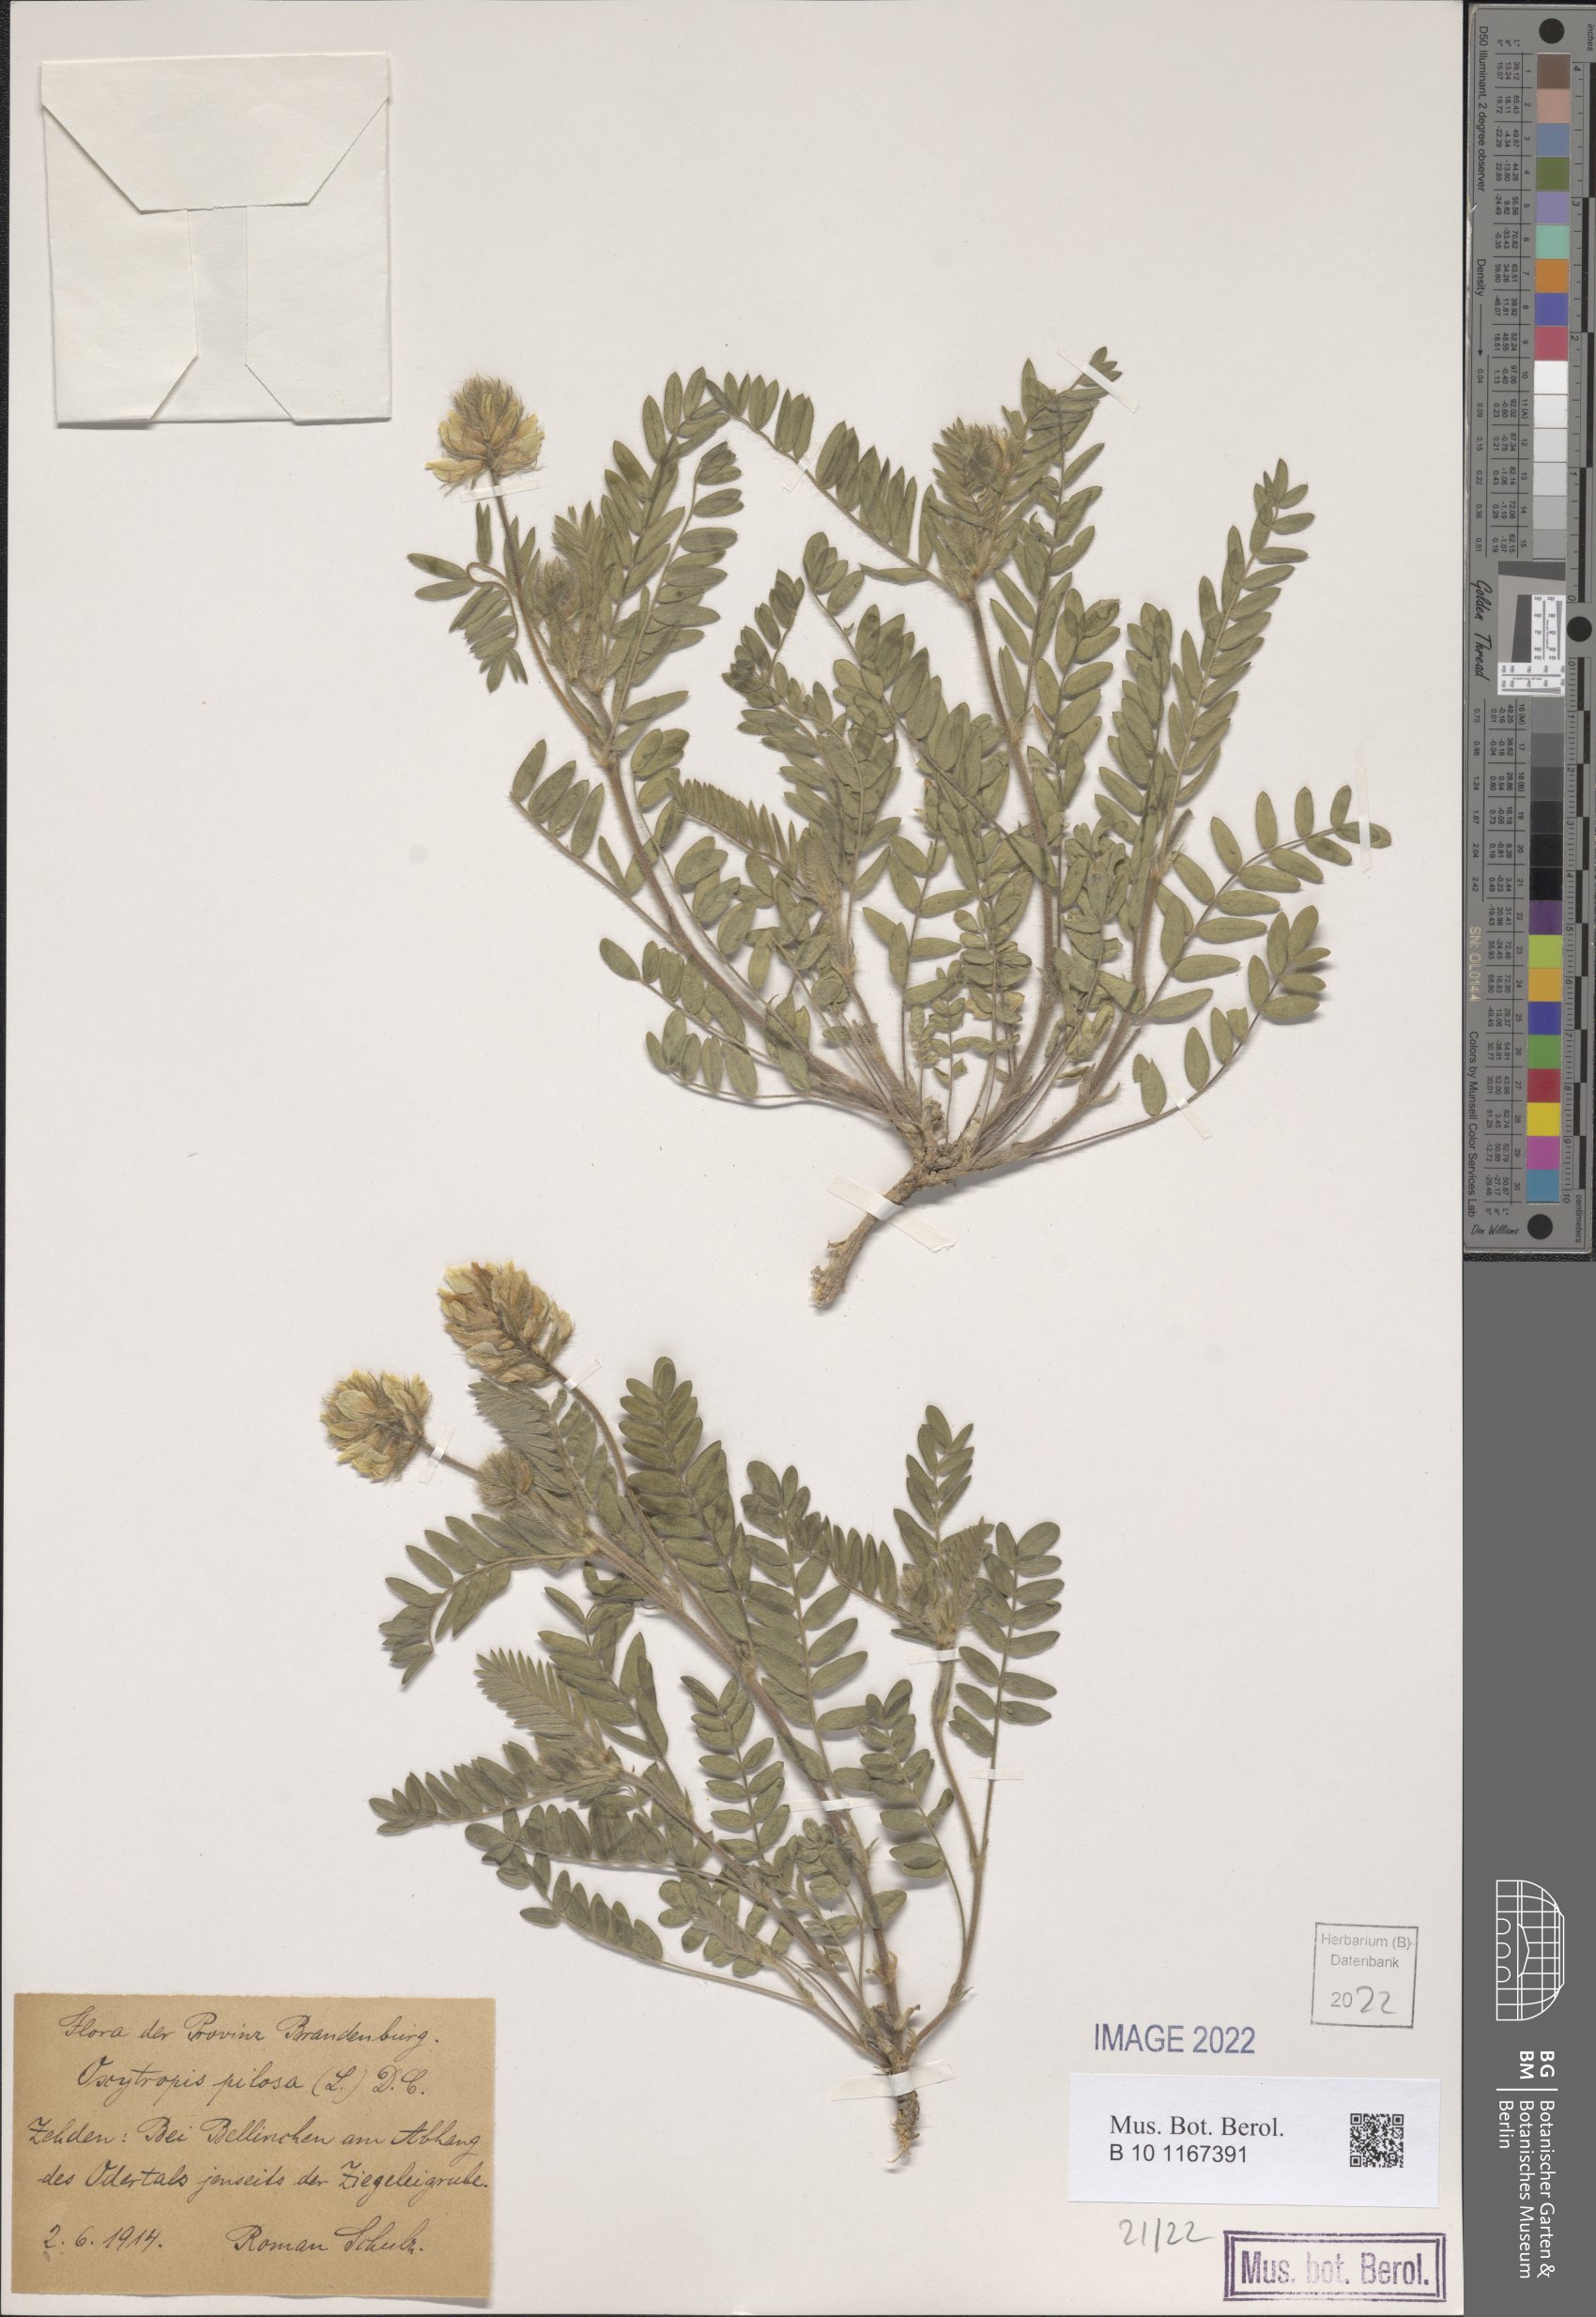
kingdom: Plantae
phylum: Tracheophyta
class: Magnoliopsida
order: Fabales
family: Fabaceae
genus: Oxytropis
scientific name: Oxytropis pilosa
